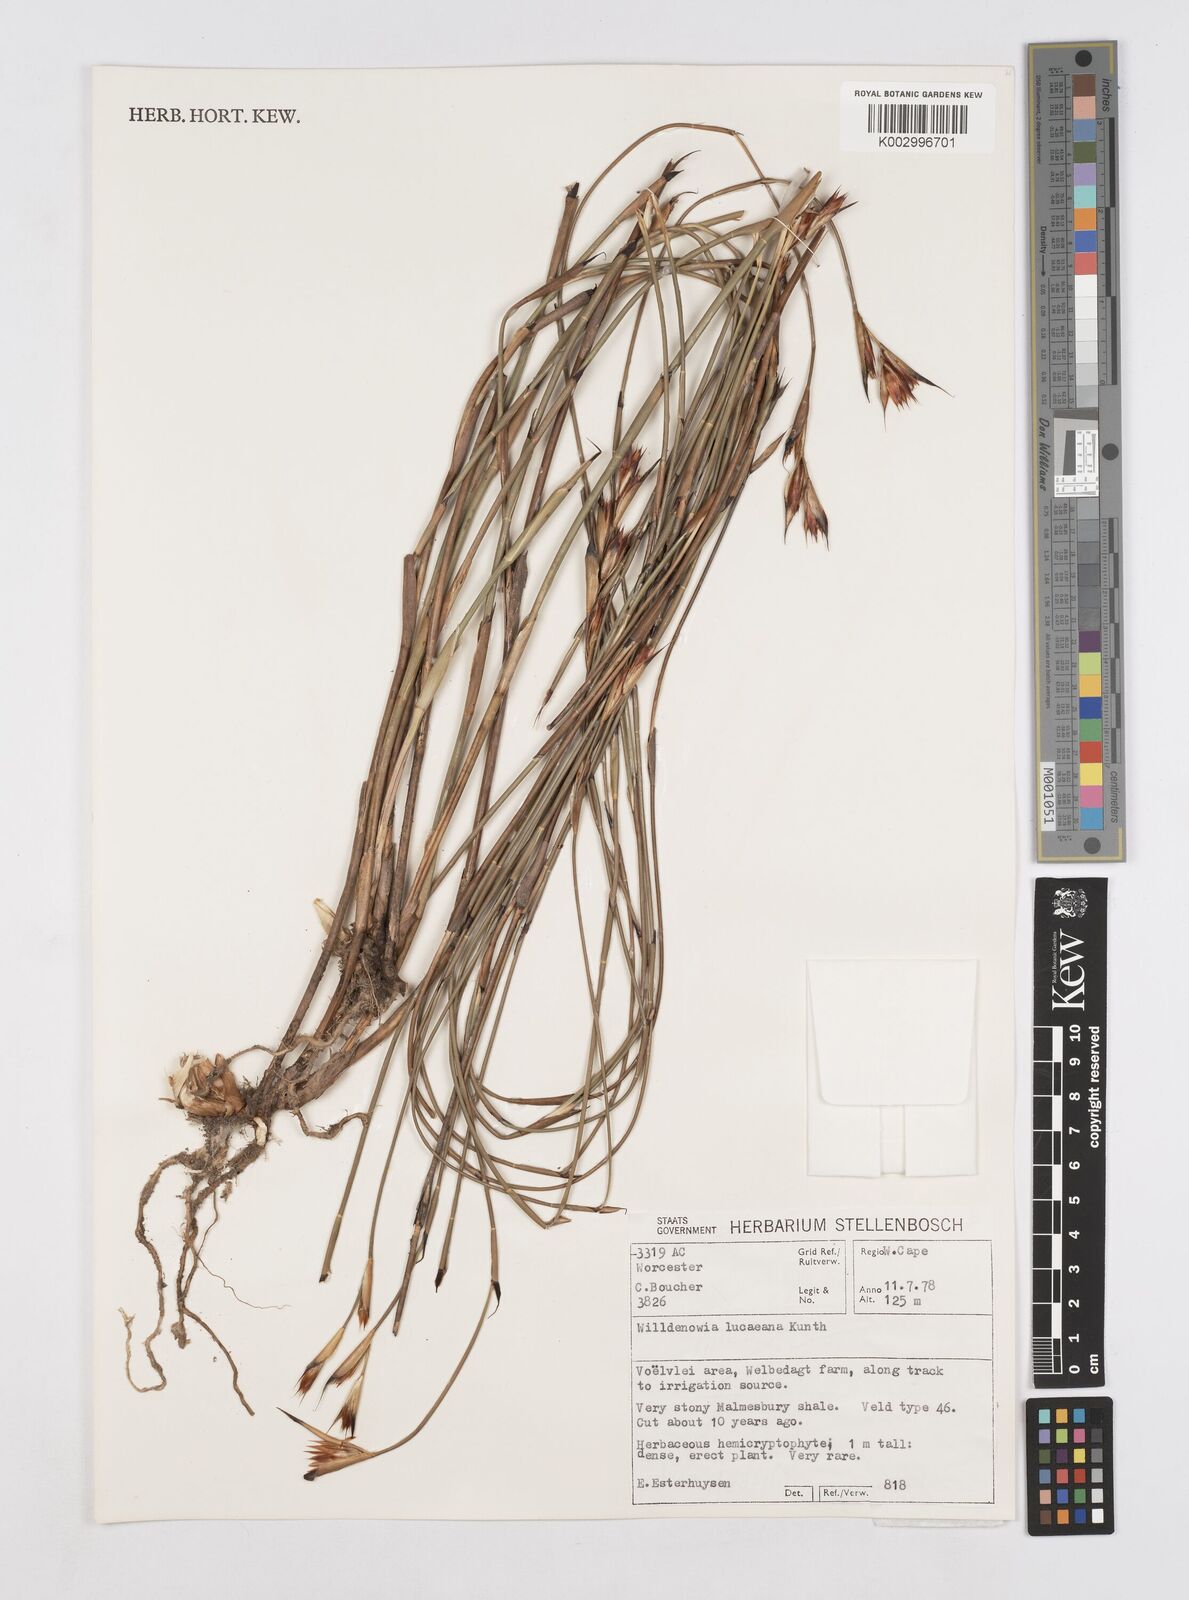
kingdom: Plantae
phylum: Tracheophyta
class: Liliopsida
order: Poales
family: Restionaceae
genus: Willdenowia
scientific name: Willdenowia glomerata
